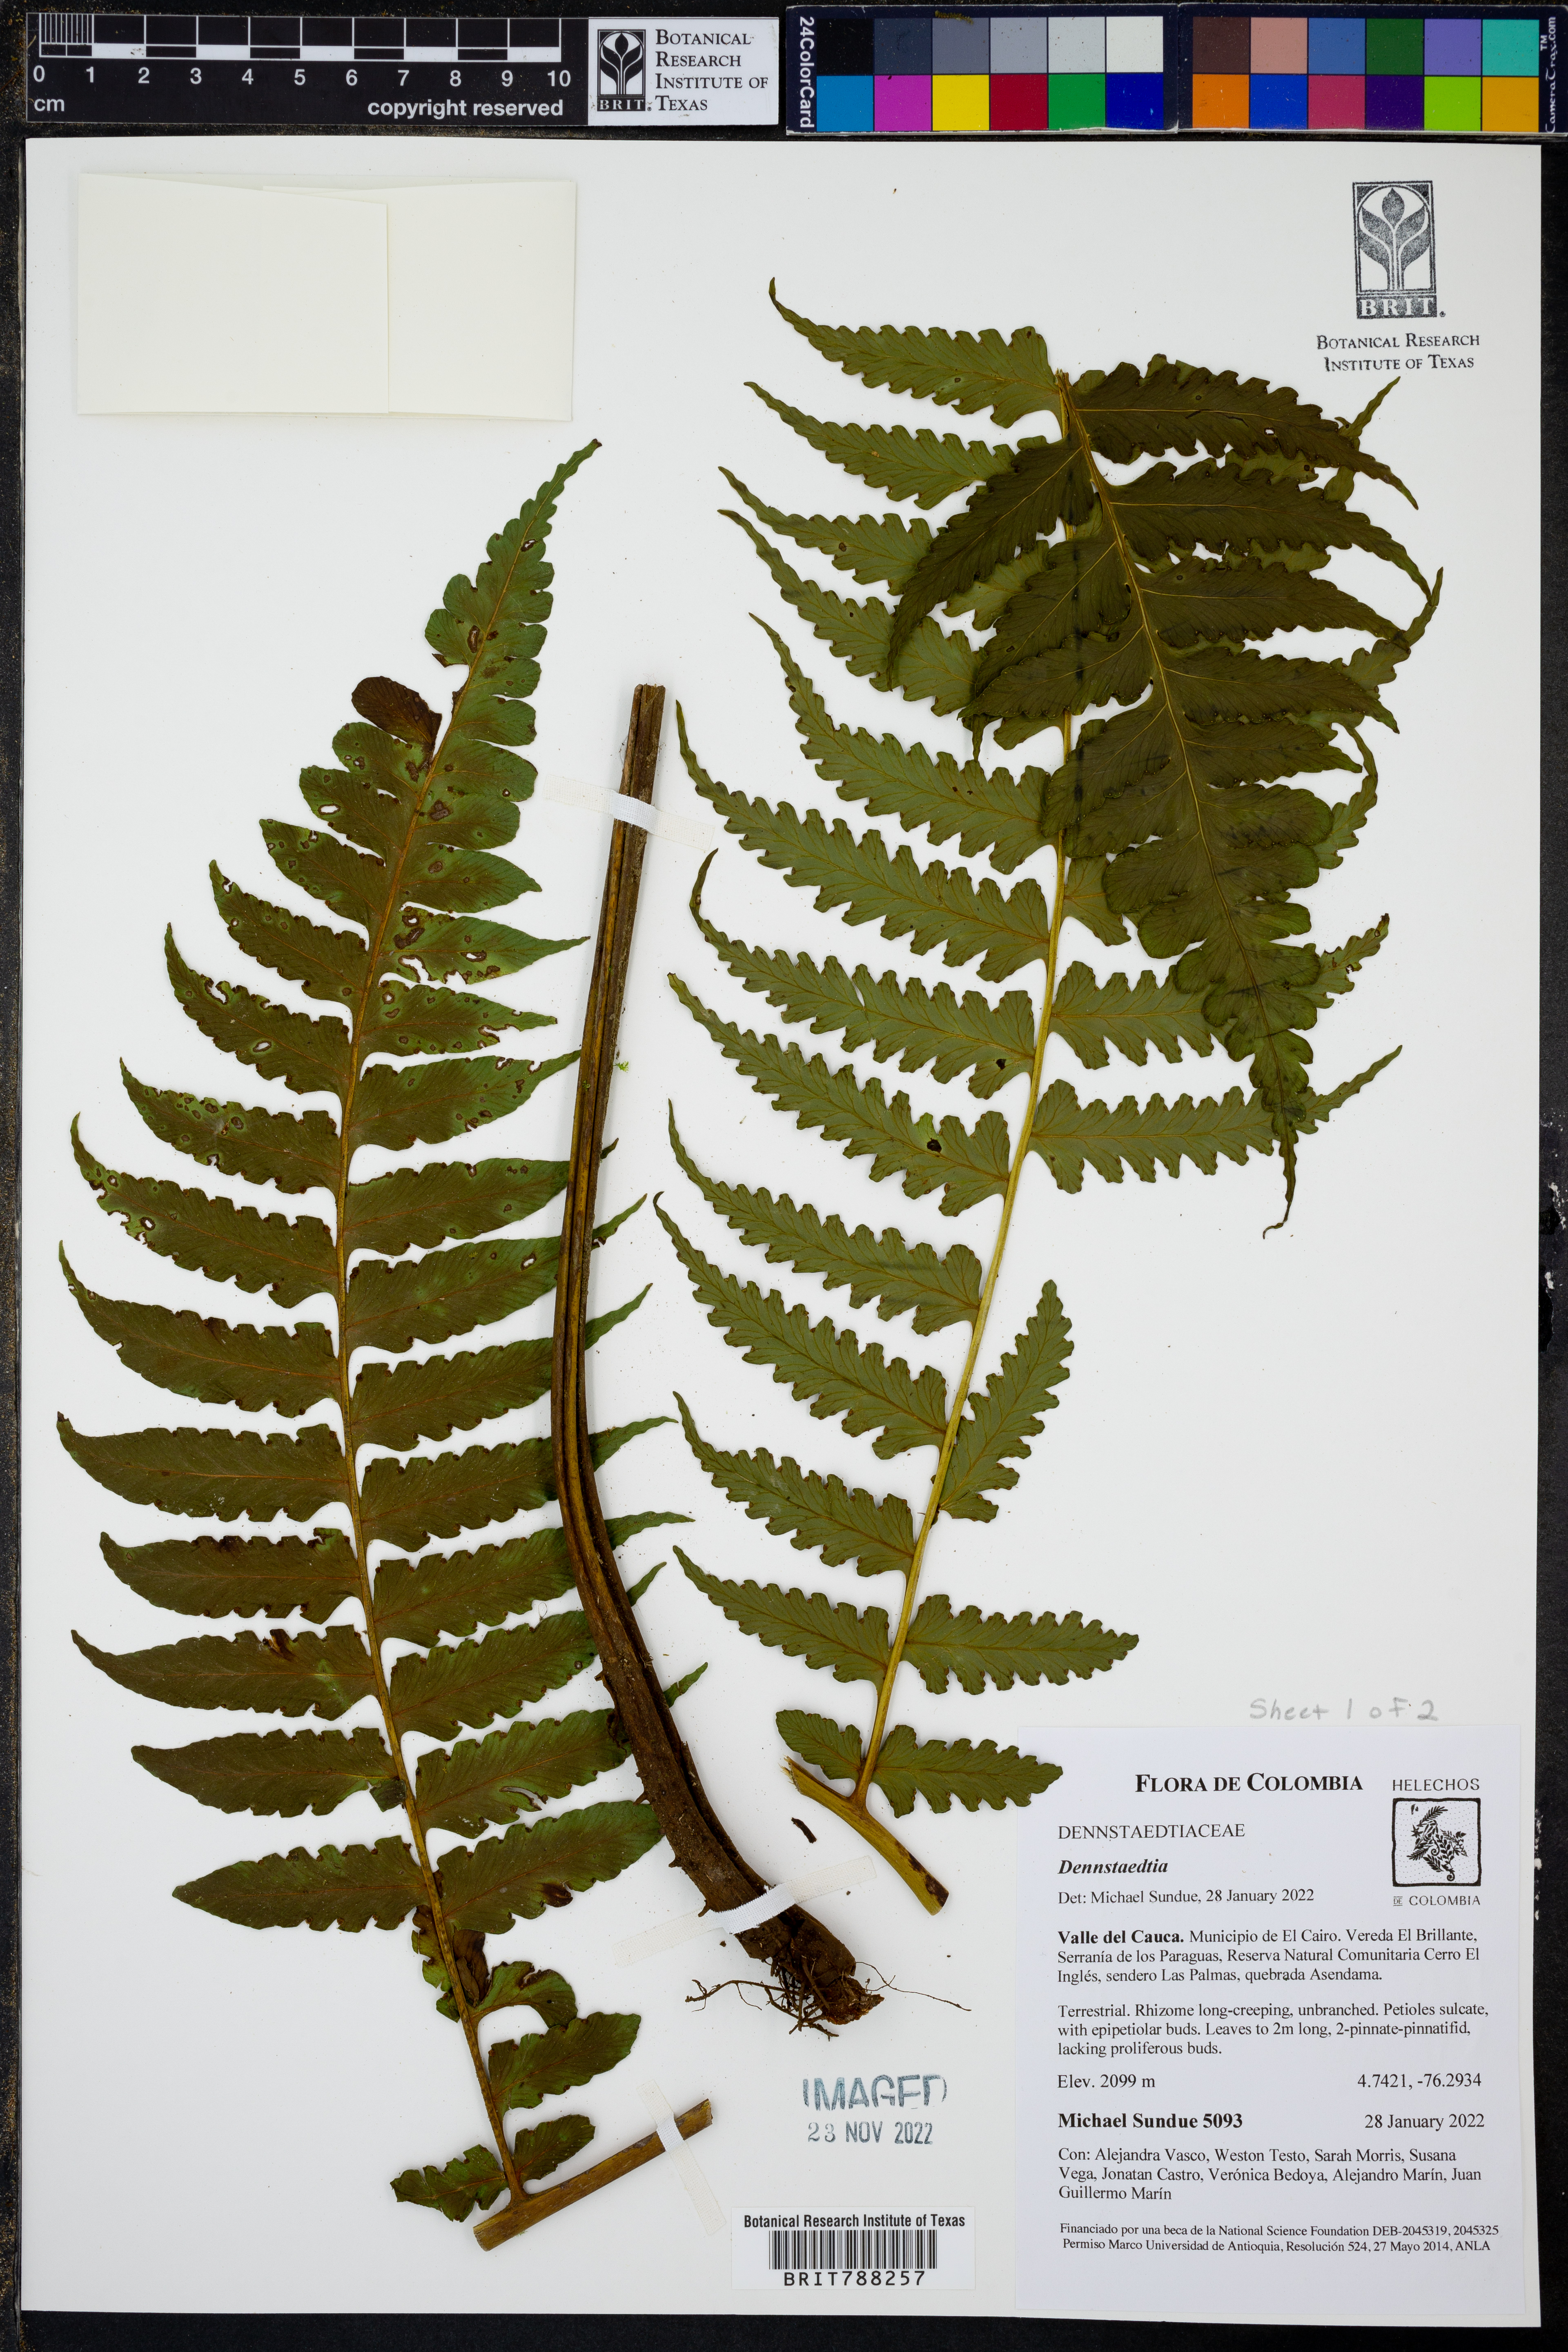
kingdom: Plantae
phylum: Tracheophyta
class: Polypodiopsida
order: Polypodiales
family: Dennstaedtiaceae
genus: Dennstaedtia
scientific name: Dennstaedtia auriculata
